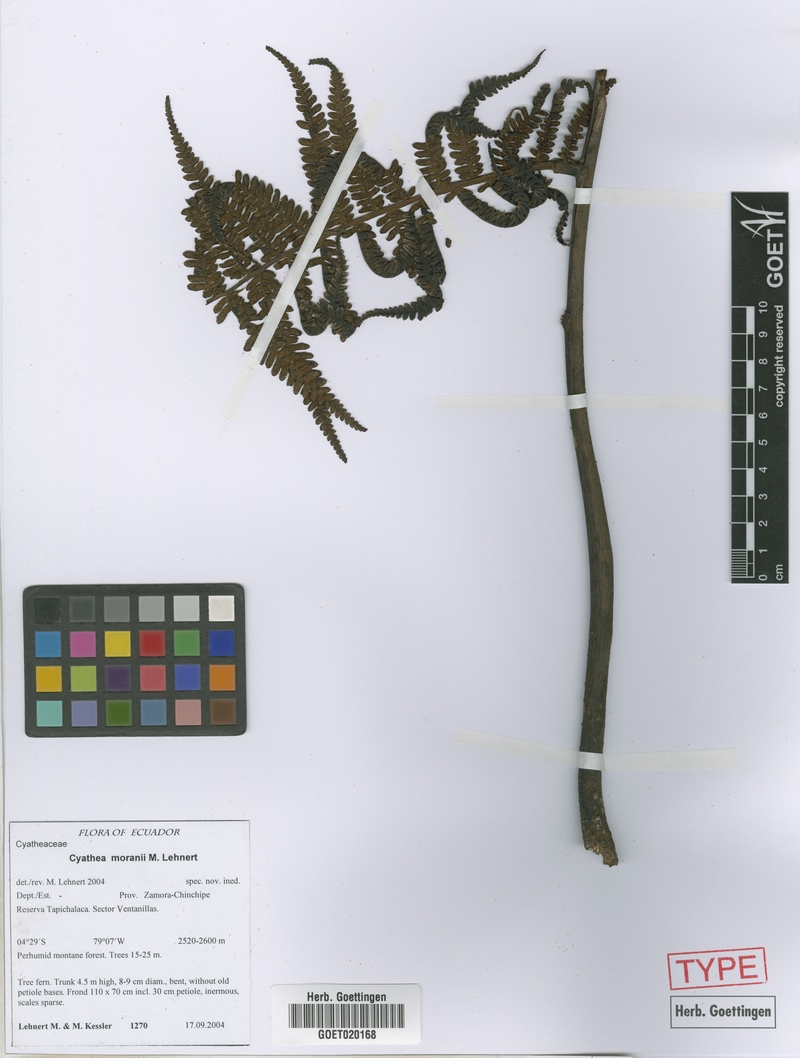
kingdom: Plantae
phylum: Tracheophyta
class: Polypodiopsida
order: Cyatheales
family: Cyatheaceae
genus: Cyathea
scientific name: Cyathea moranii
